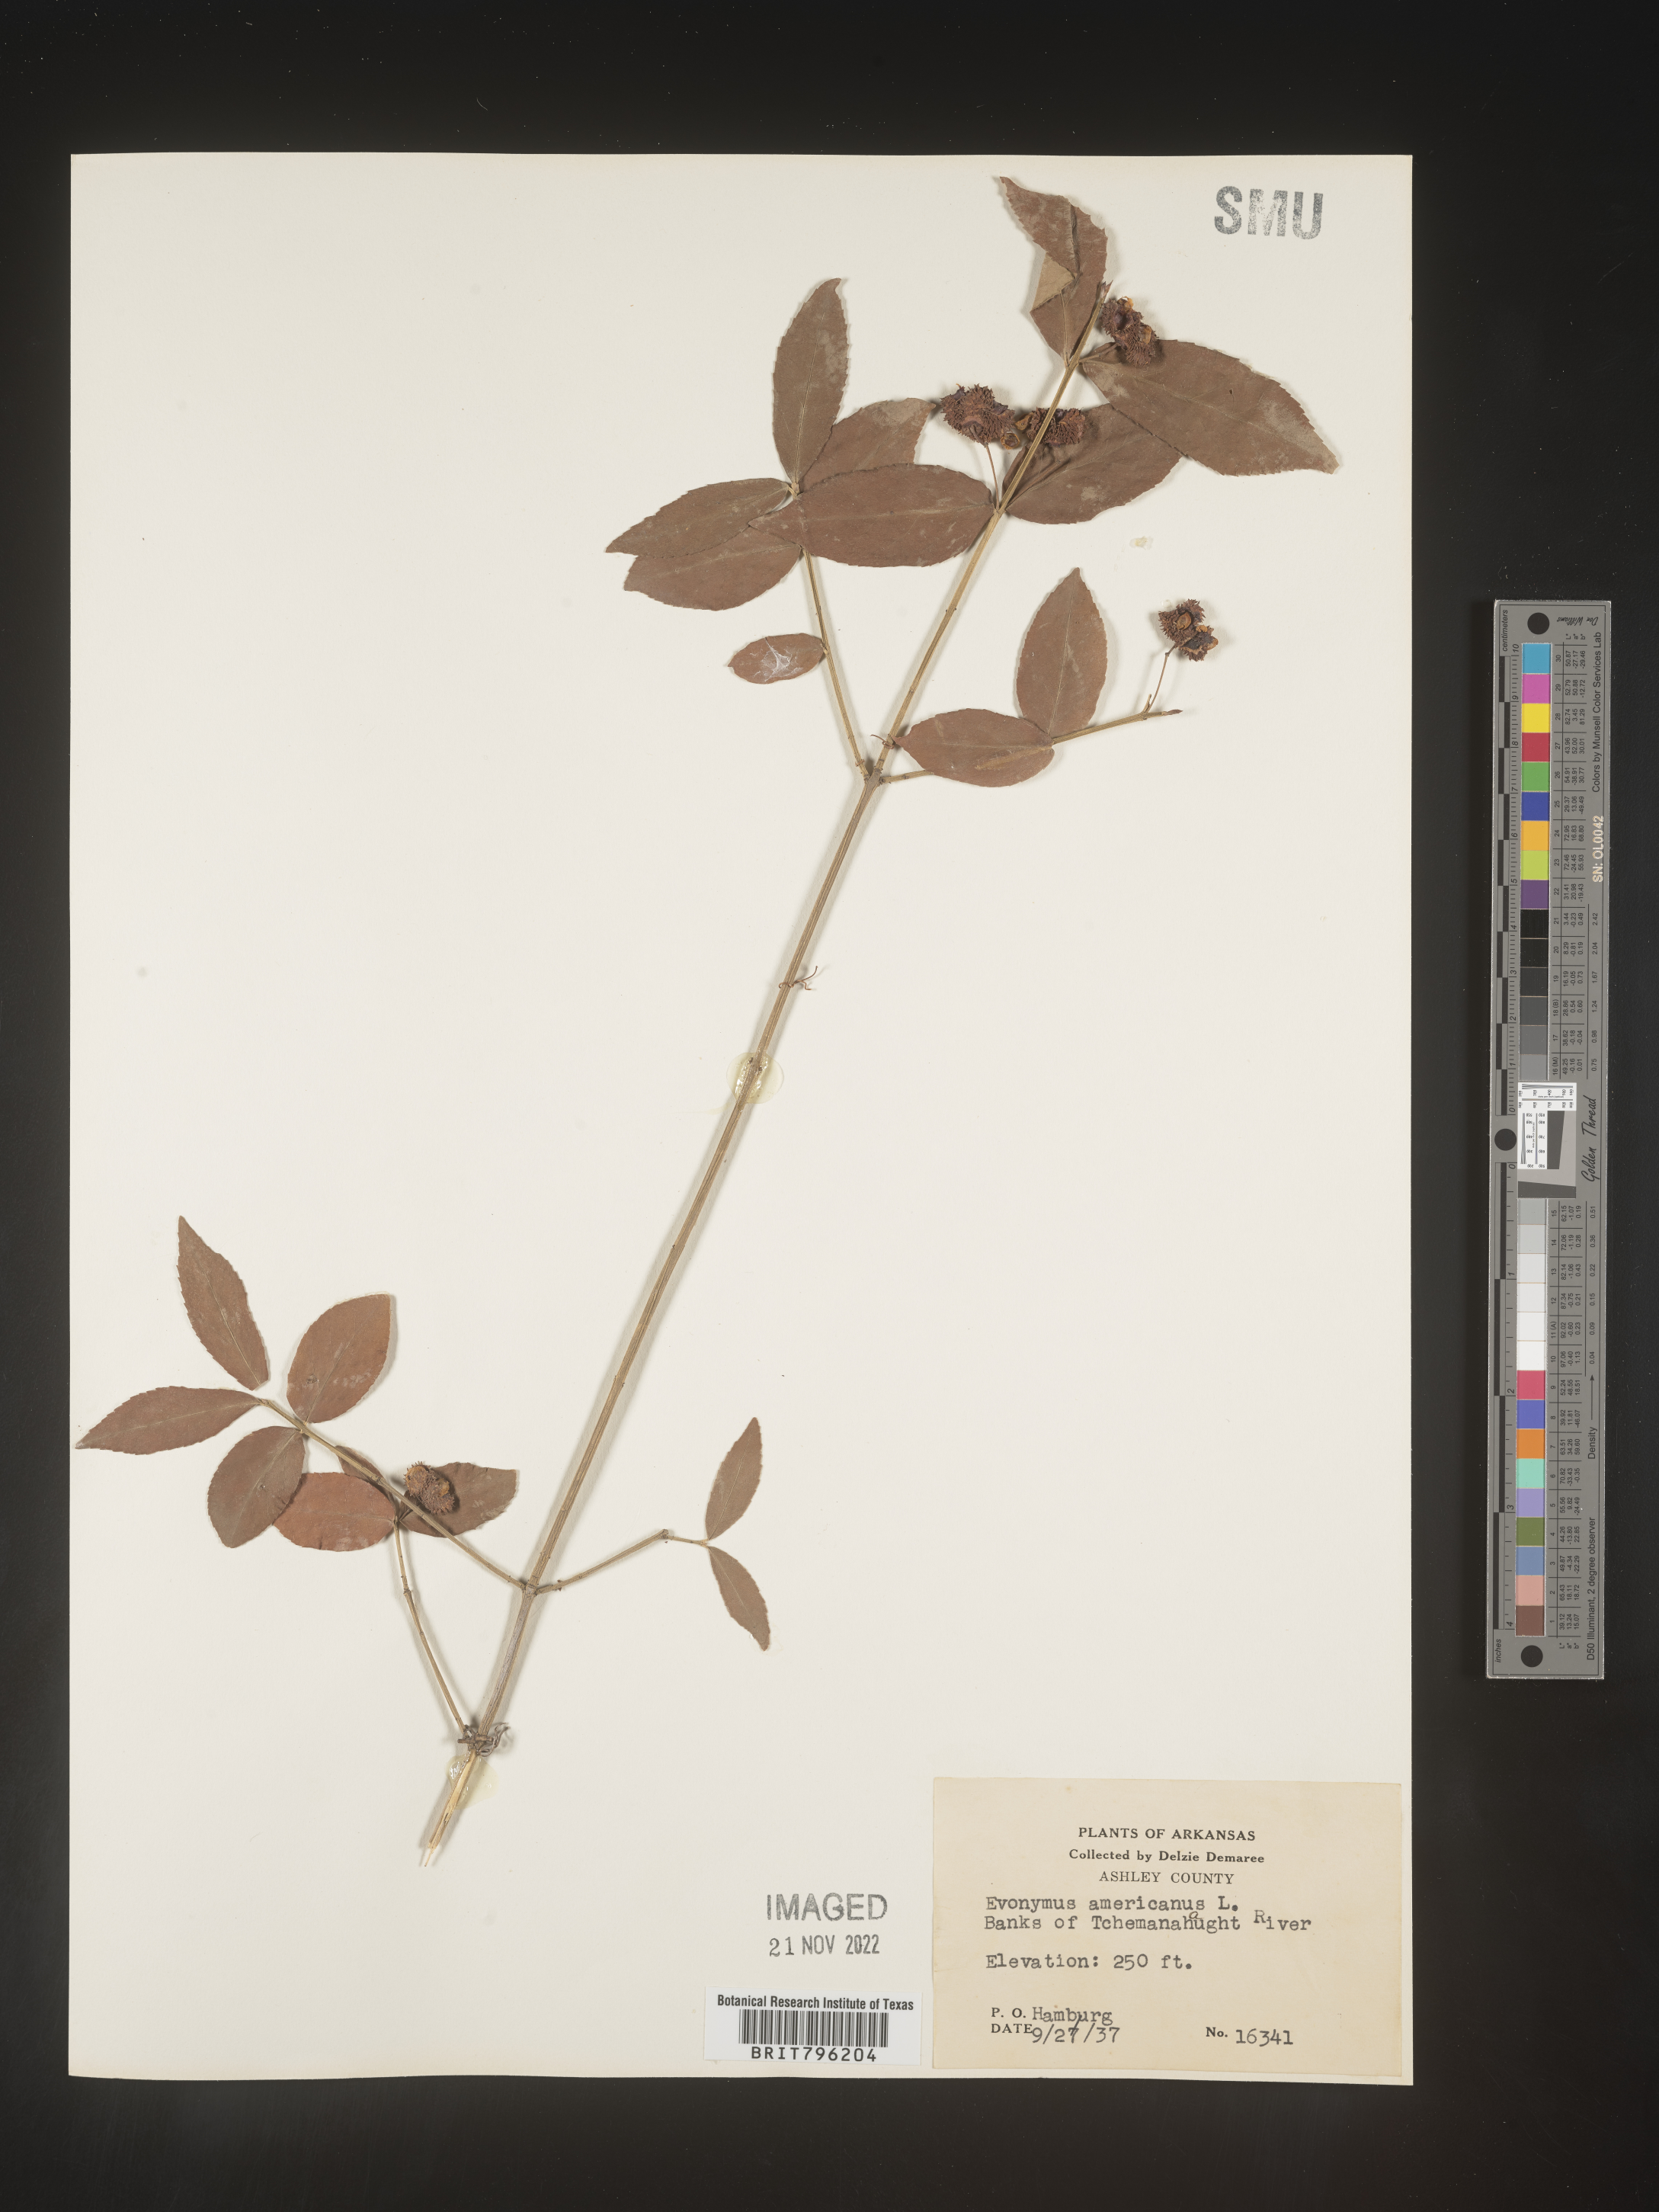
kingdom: Plantae
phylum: Tracheophyta
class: Magnoliopsida
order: Celastrales
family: Celastraceae
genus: Euonymus
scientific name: Euonymus americanus
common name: Bursting-heart
